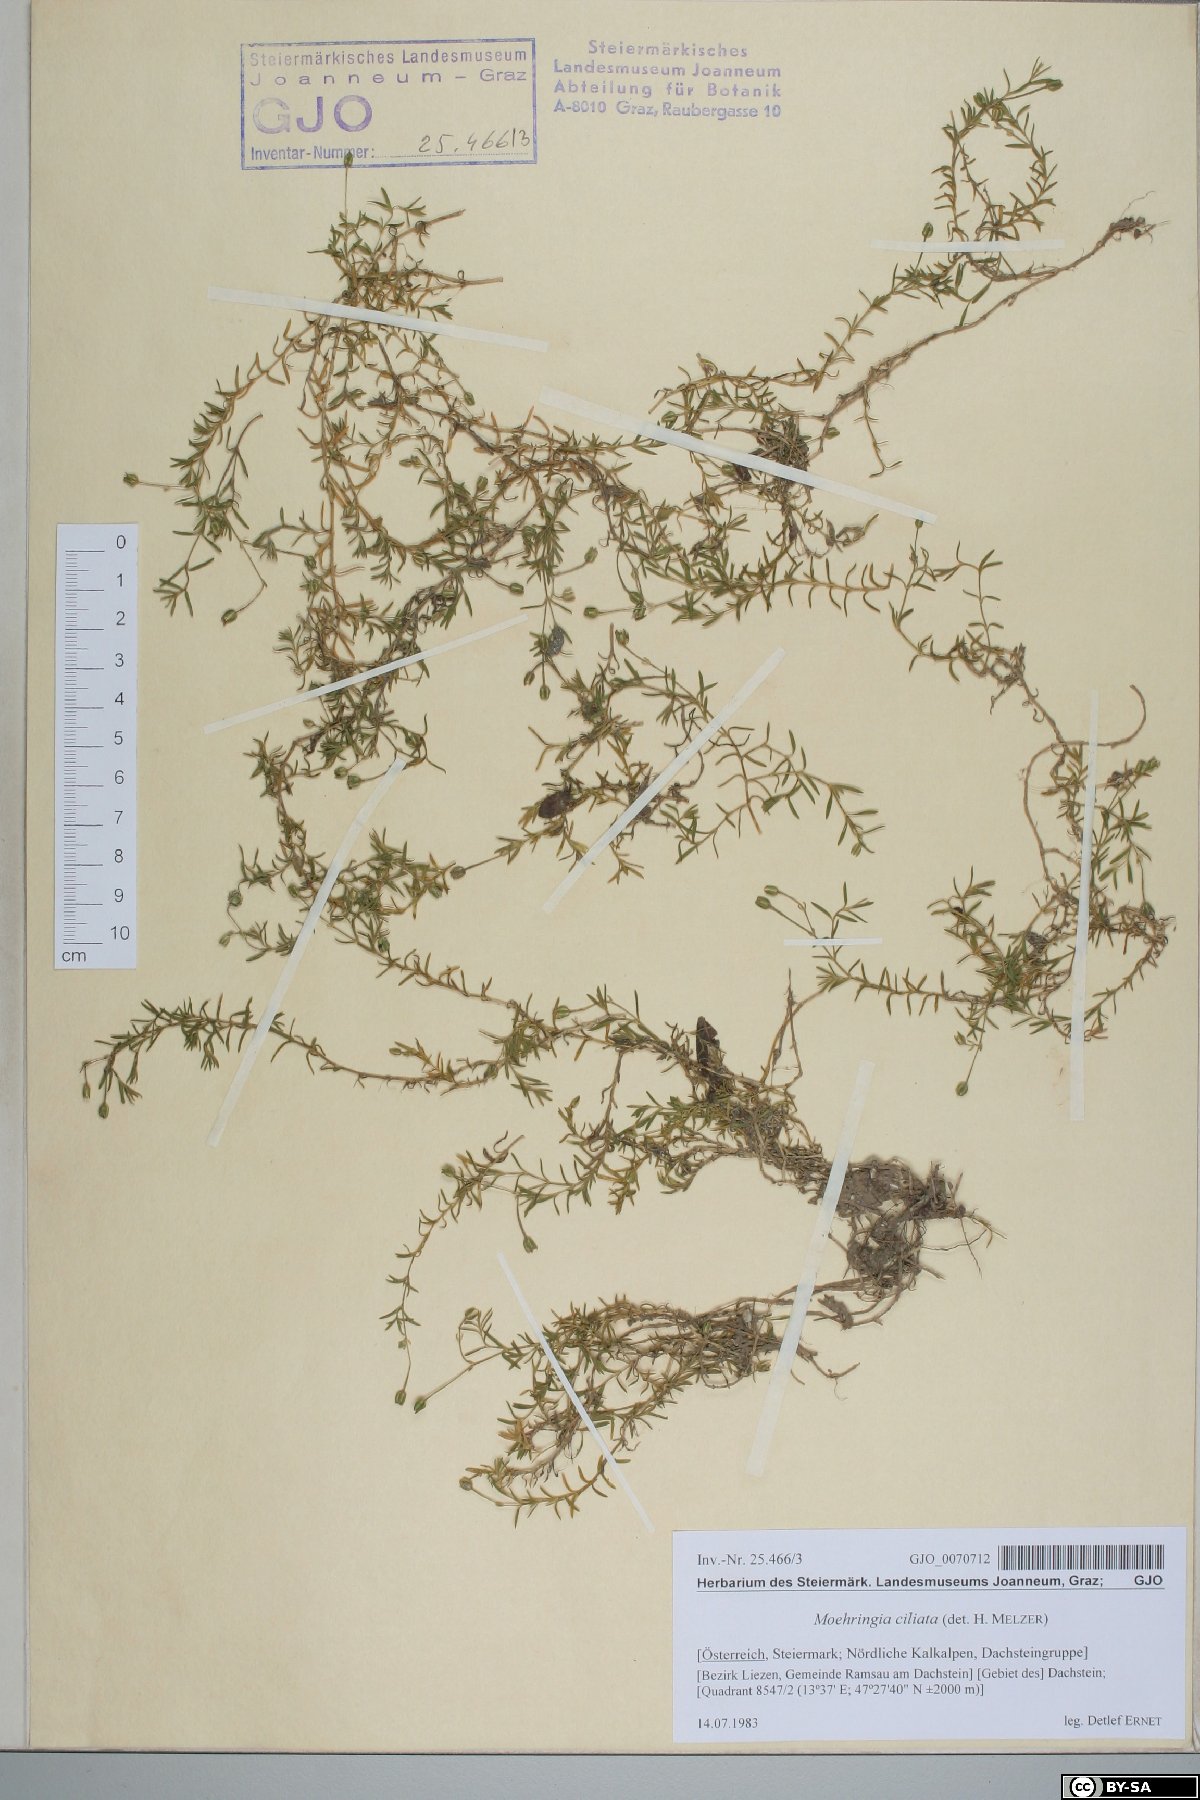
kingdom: Plantae
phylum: Tracheophyta
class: Magnoliopsida
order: Caryophyllales
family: Caryophyllaceae
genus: Moehringia
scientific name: Moehringia ciliata
